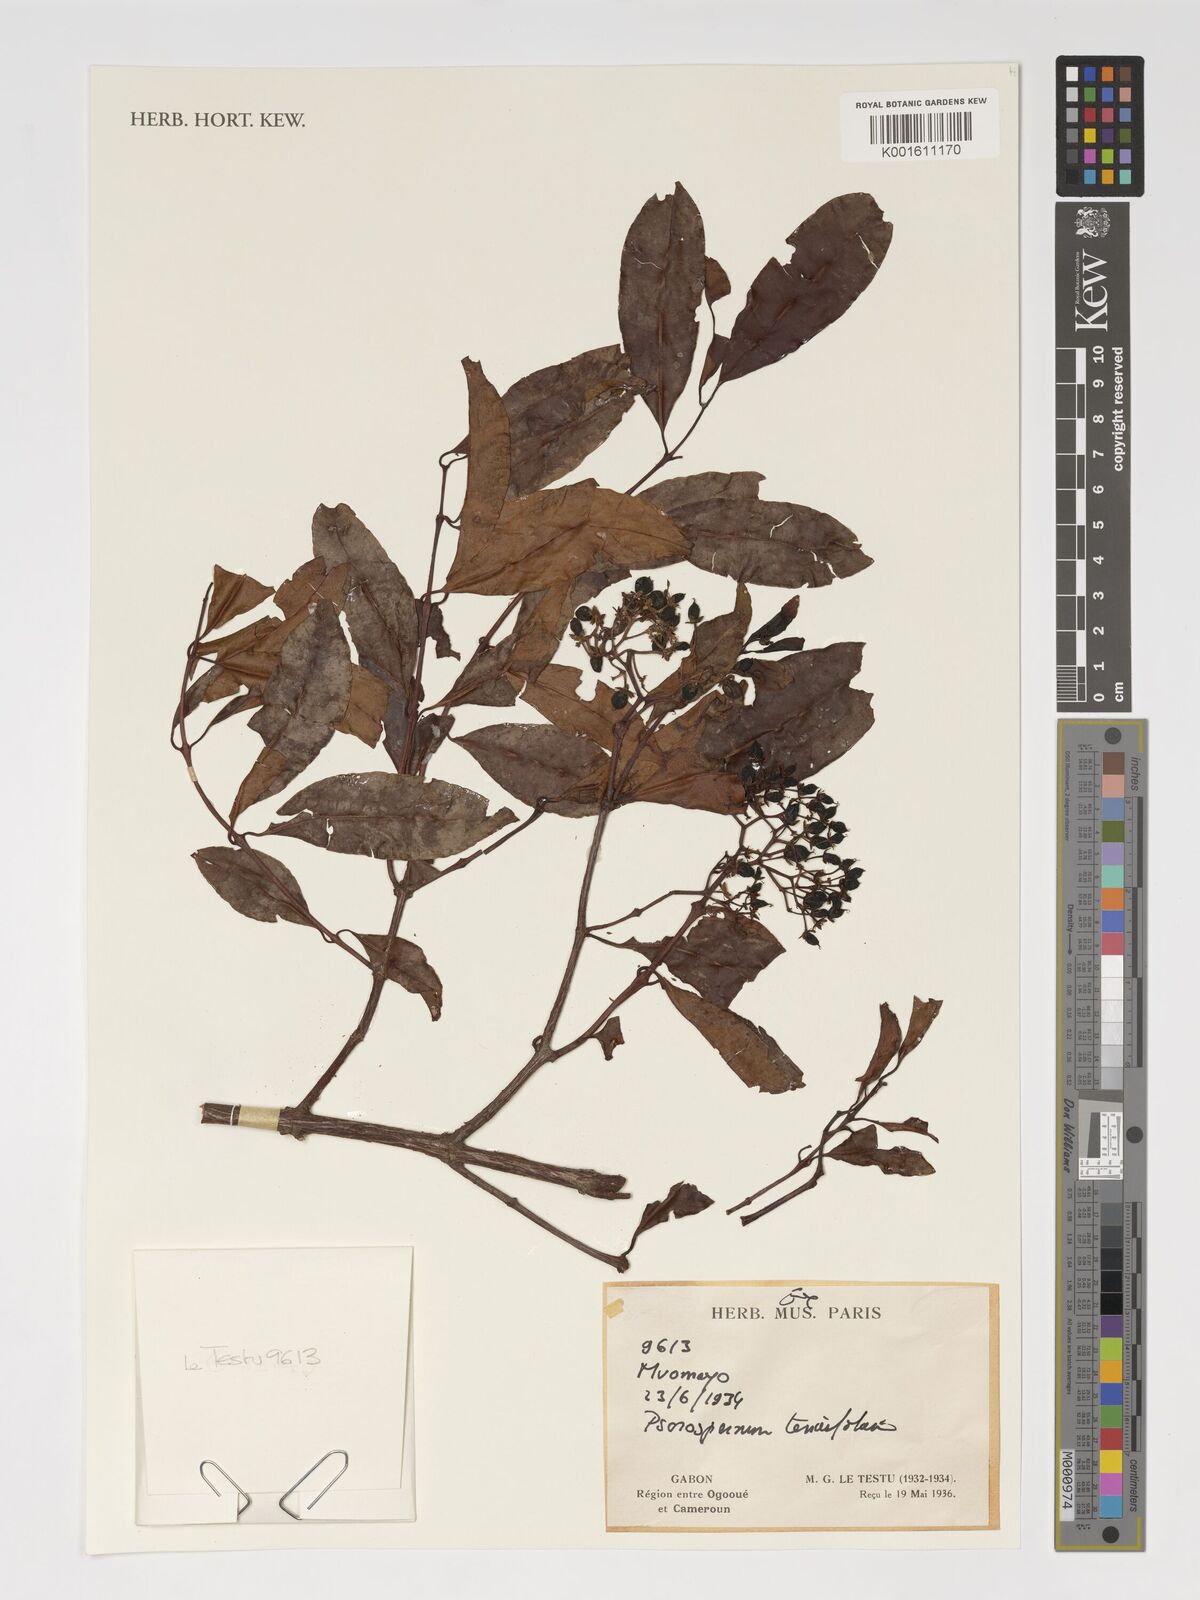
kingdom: Plantae
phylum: Tracheophyta
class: Magnoliopsida
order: Malpighiales
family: Hypericaceae
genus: Psorospermum
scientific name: Psorospermum tenuifolium
